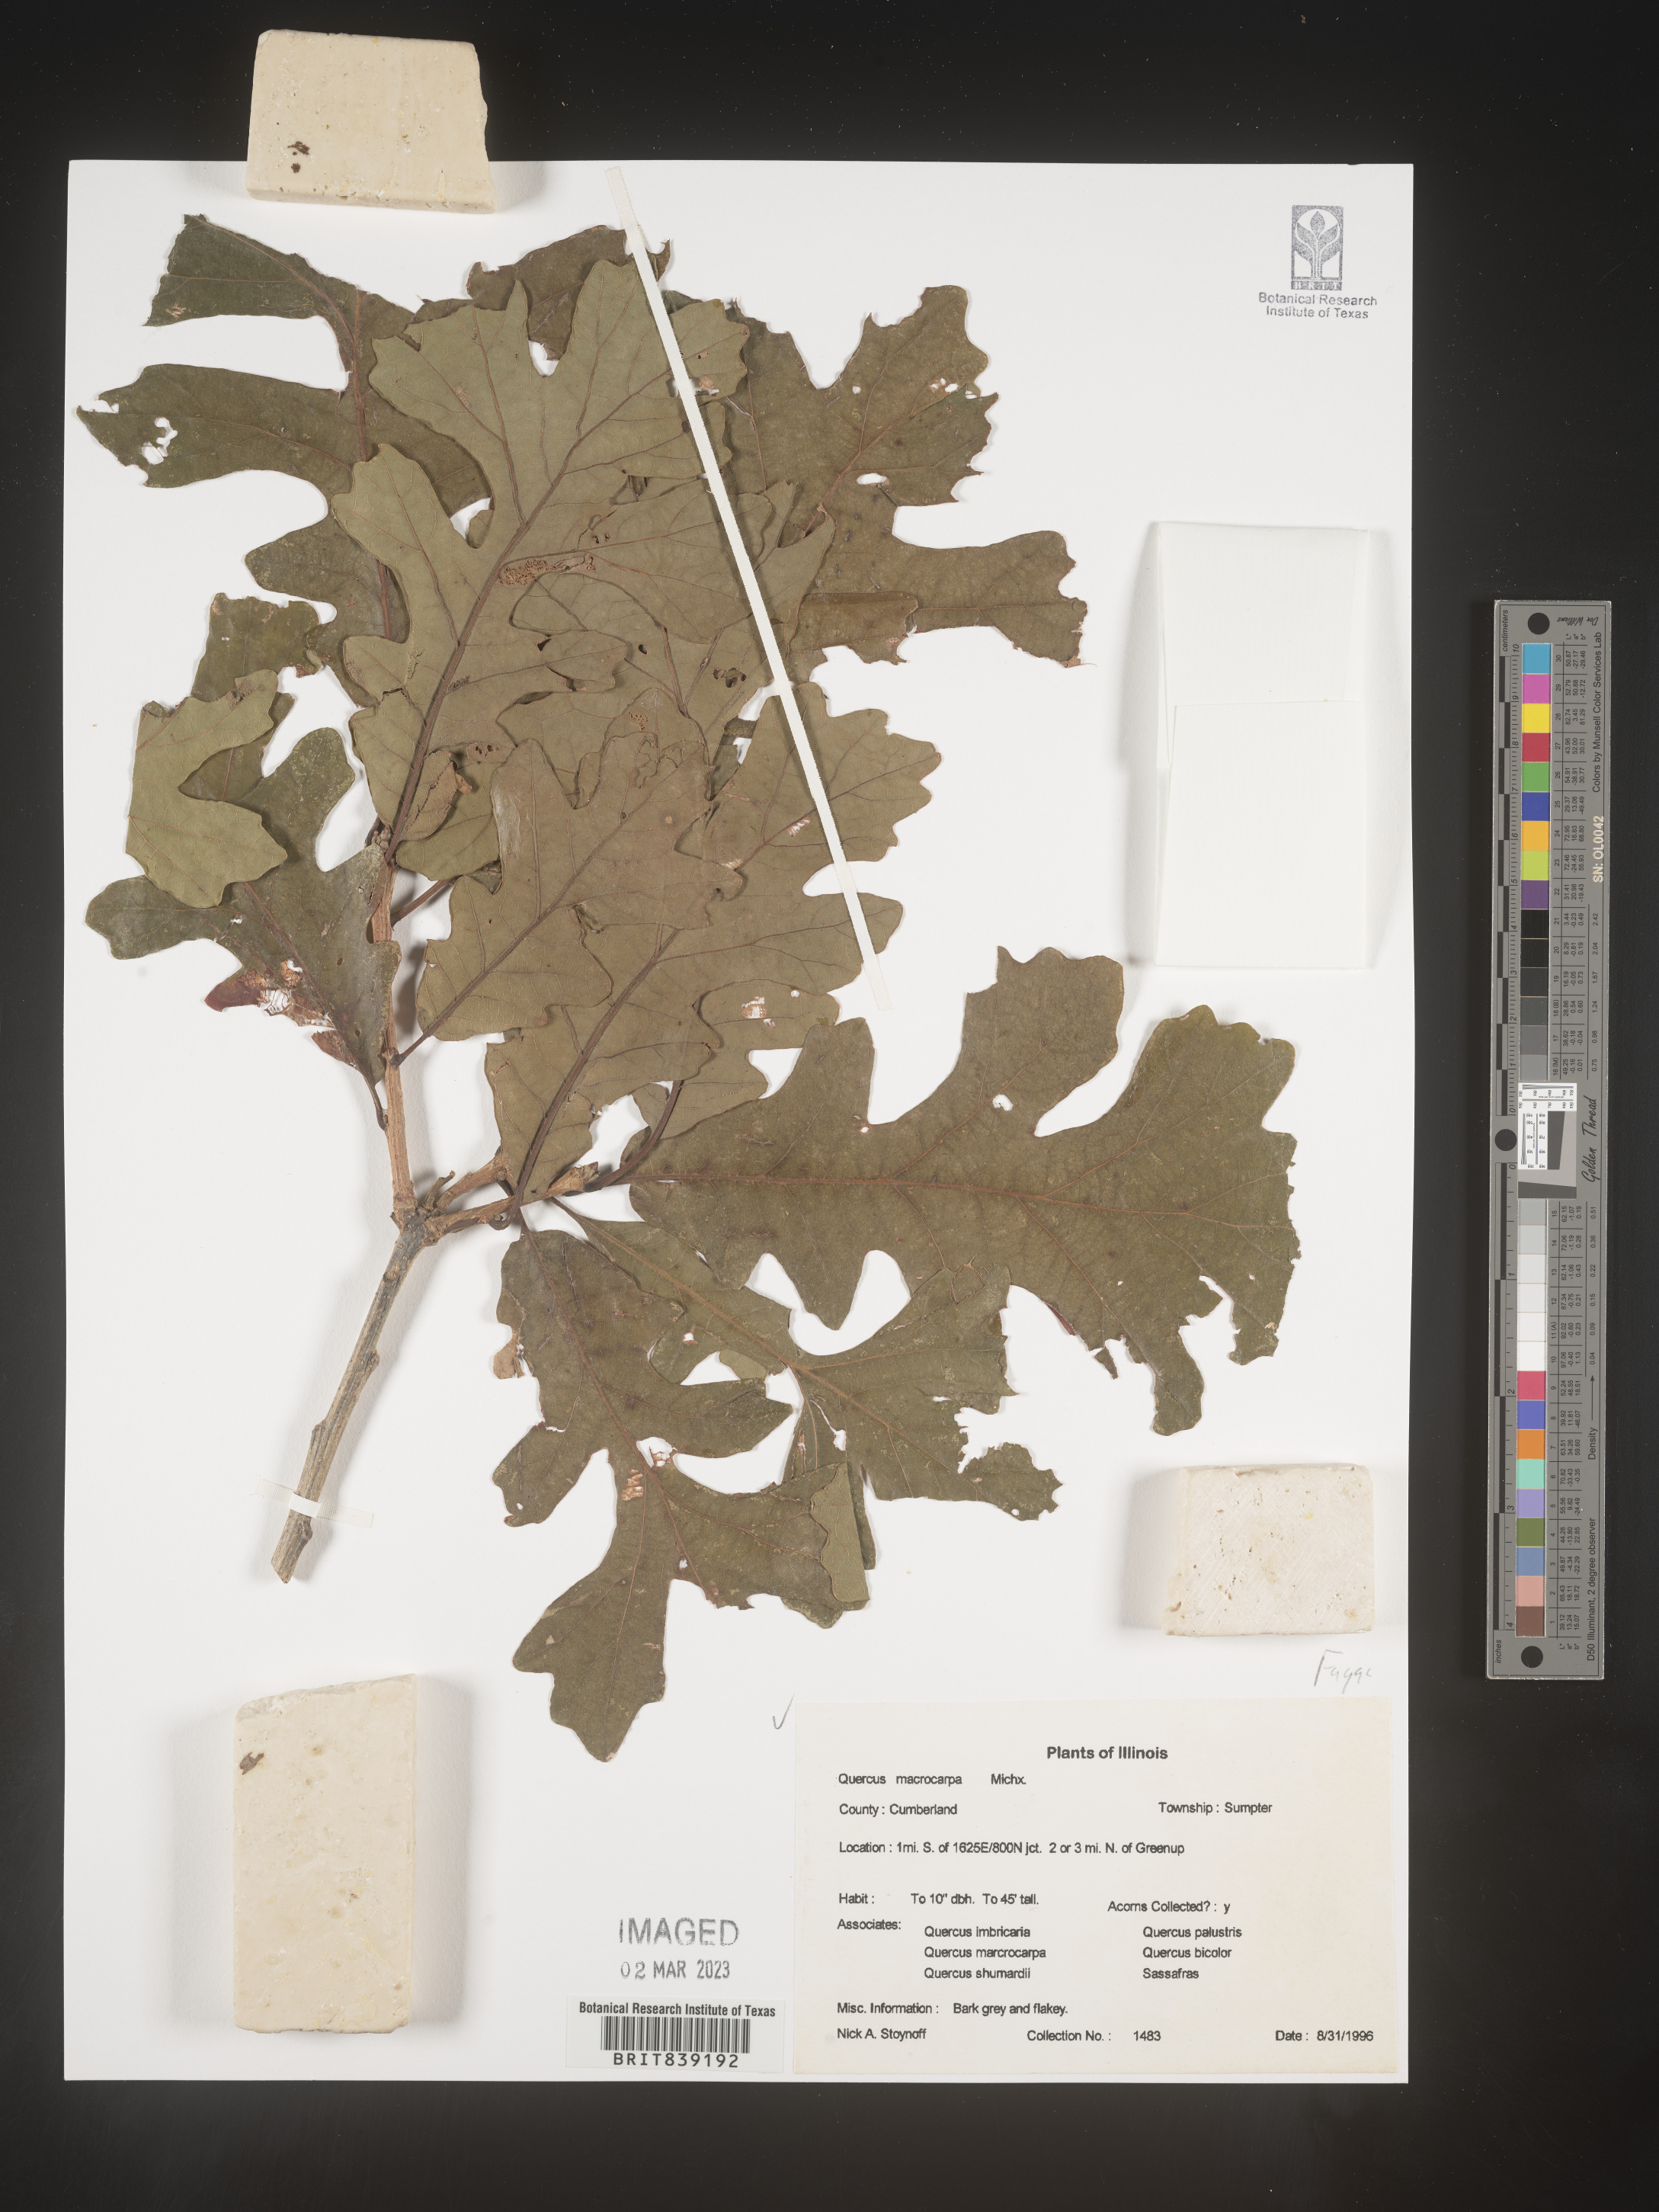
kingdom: Plantae
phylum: Tracheophyta
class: Magnoliopsida
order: Fagales
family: Fagaceae
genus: Quercus
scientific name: Quercus macrocarpa
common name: Bur oak
